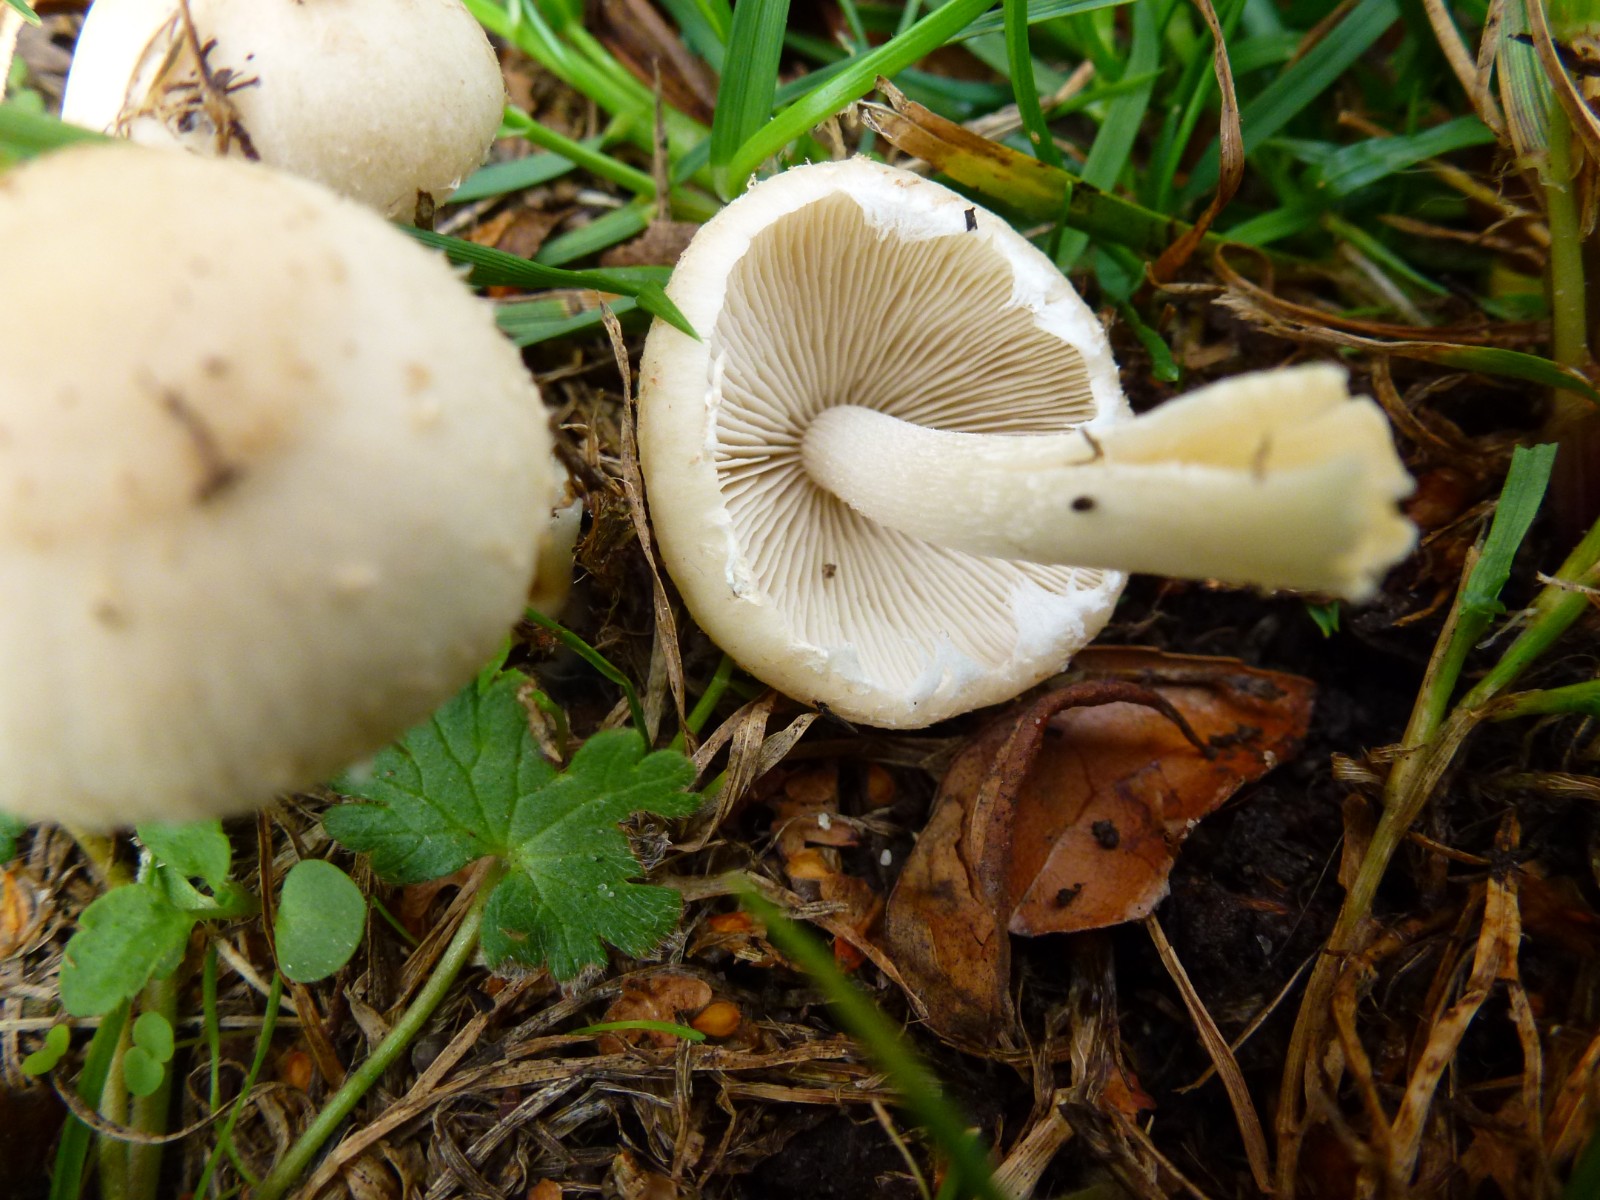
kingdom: Fungi
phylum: Basidiomycota
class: Agaricomycetes
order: Agaricales
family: Psathyrellaceae
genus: Candolleomyces
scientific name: Candolleomyces candolleanus
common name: Candolles mørkhat
